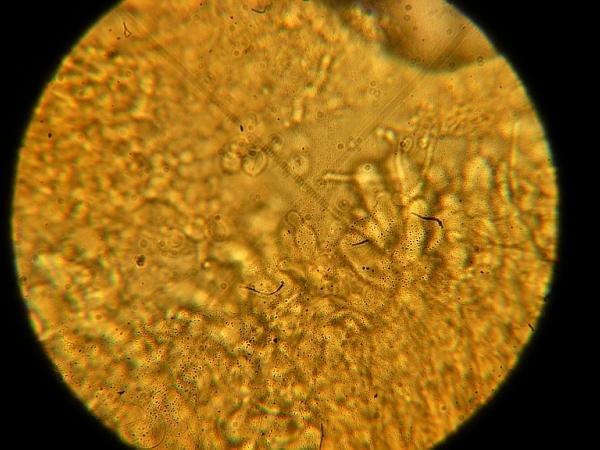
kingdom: Fungi
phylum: Basidiomycota
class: Agaricomycetes
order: Agaricales
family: Radulomycetaceae
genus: Radulomyces
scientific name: Radulomyces confluens
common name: glat naftalinskind
